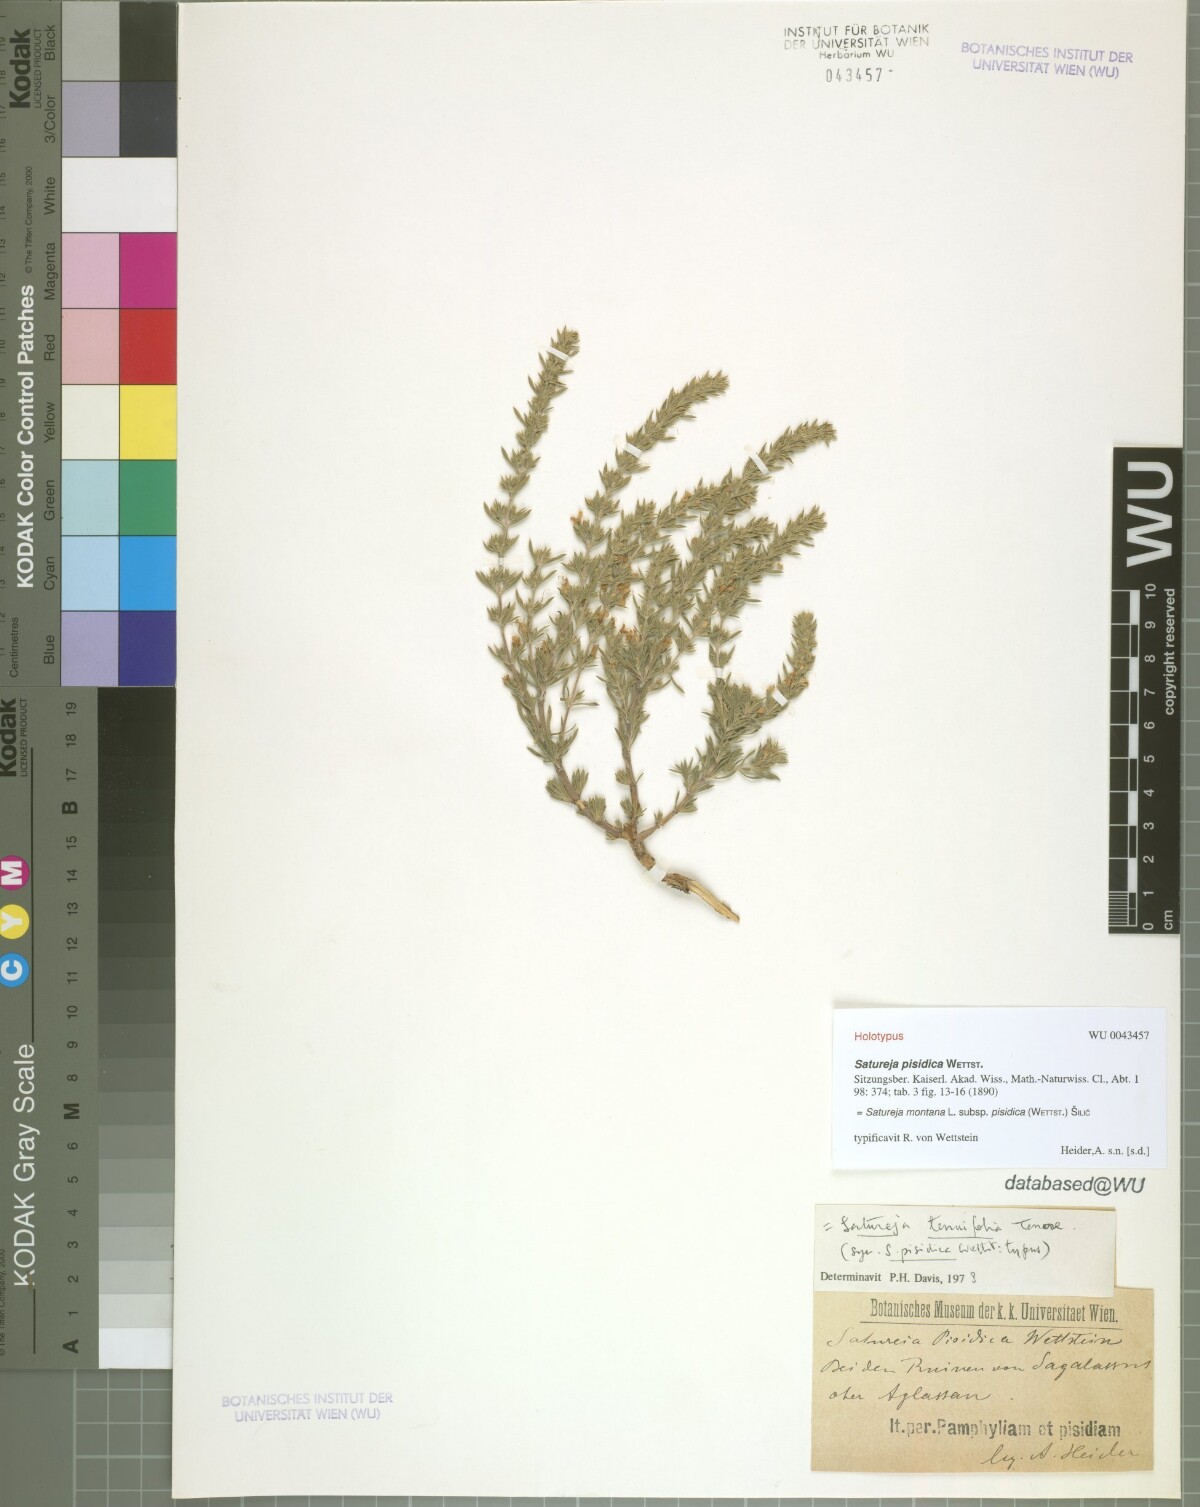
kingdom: Plantae
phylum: Tracheophyta
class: Magnoliopsida
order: Lamiales
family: Lamiaceae
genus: Satureja
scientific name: Satureja montana
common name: Winter savory
